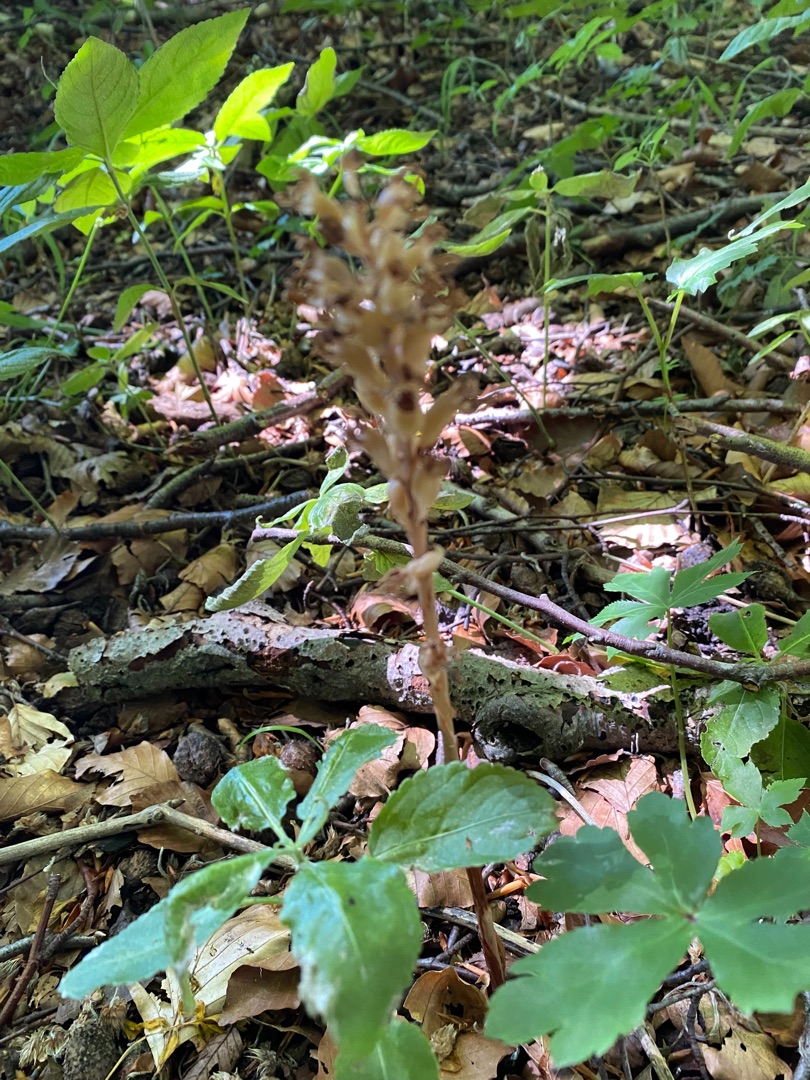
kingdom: Plantae
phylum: Tracheophyta
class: Liliopsida
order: Asparagales
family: Orchidaceae
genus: Neottia
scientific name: Neottia nidus-avis
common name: Rederod
